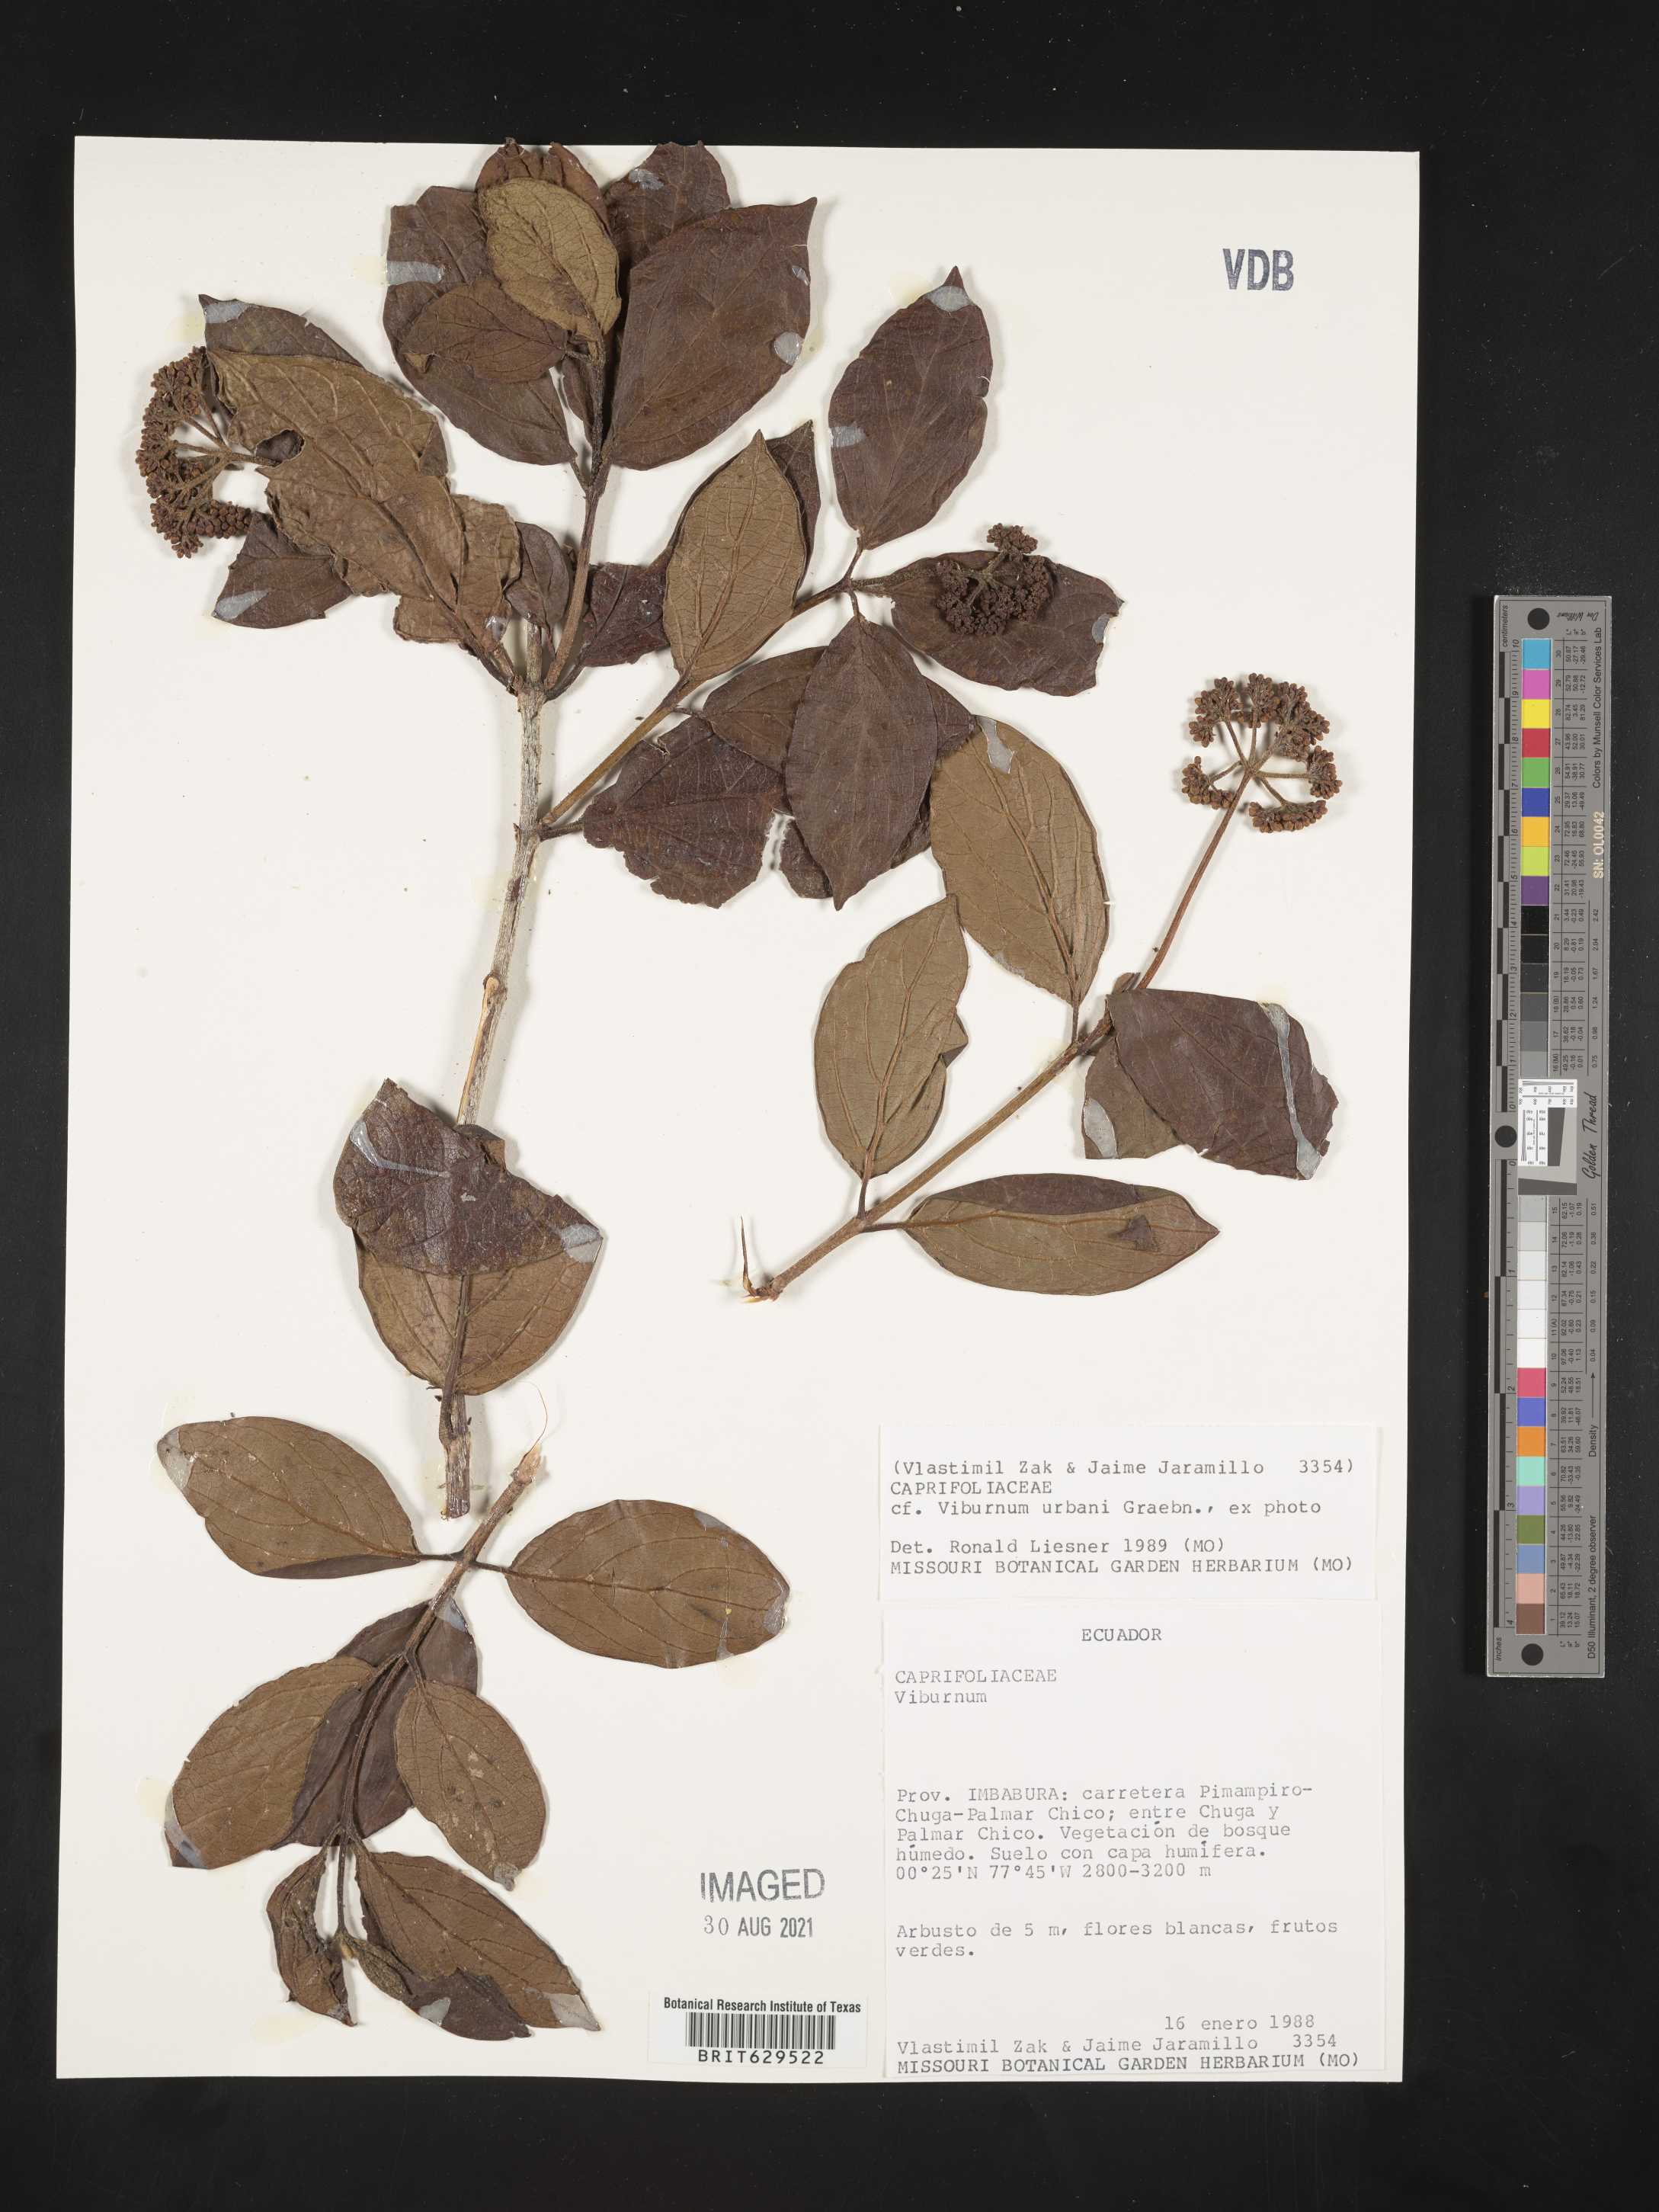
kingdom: Plantae
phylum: Tracheophyta
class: Magnoliopsida
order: Dipsacales
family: Viburnaceae
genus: Viburnum
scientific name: Viburnum urbani
